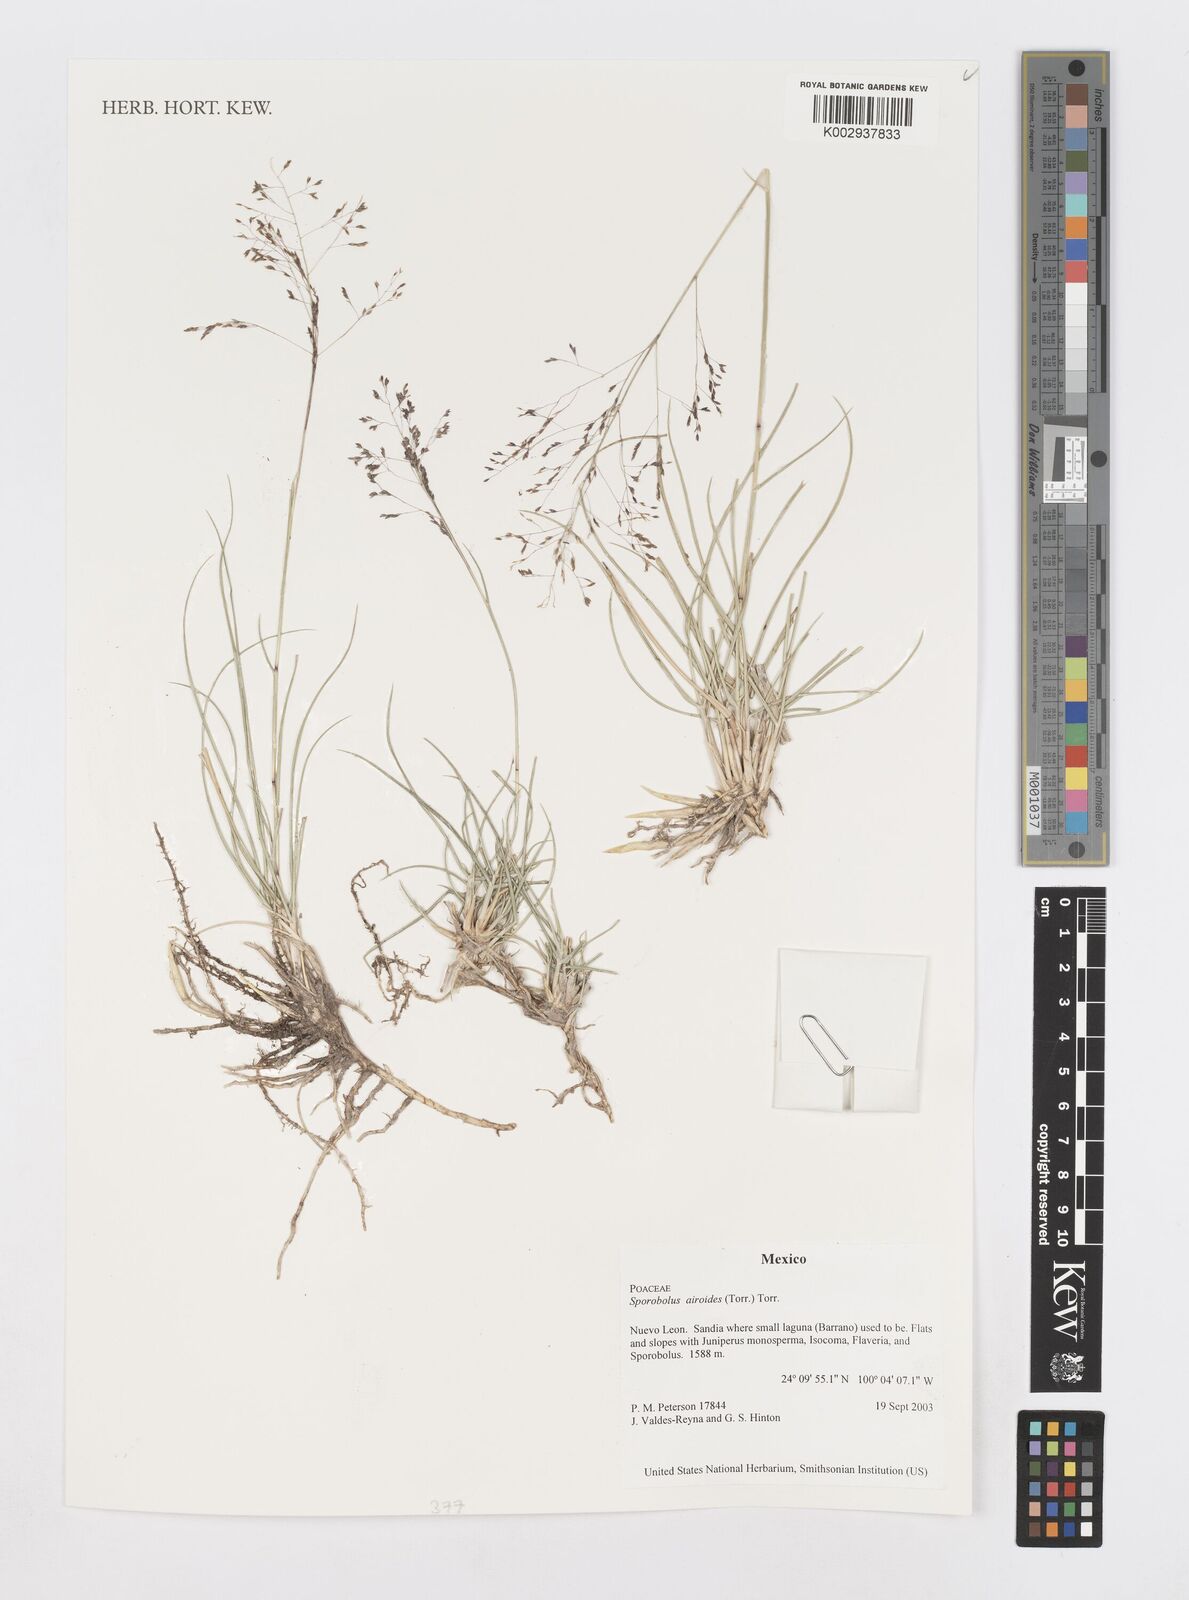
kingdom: Plantae
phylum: Tracheophyta
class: Liliopsida
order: Poales
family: Poaceae
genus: Sporobolus
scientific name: Sporobolus airoides
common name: Alkali sacaton
